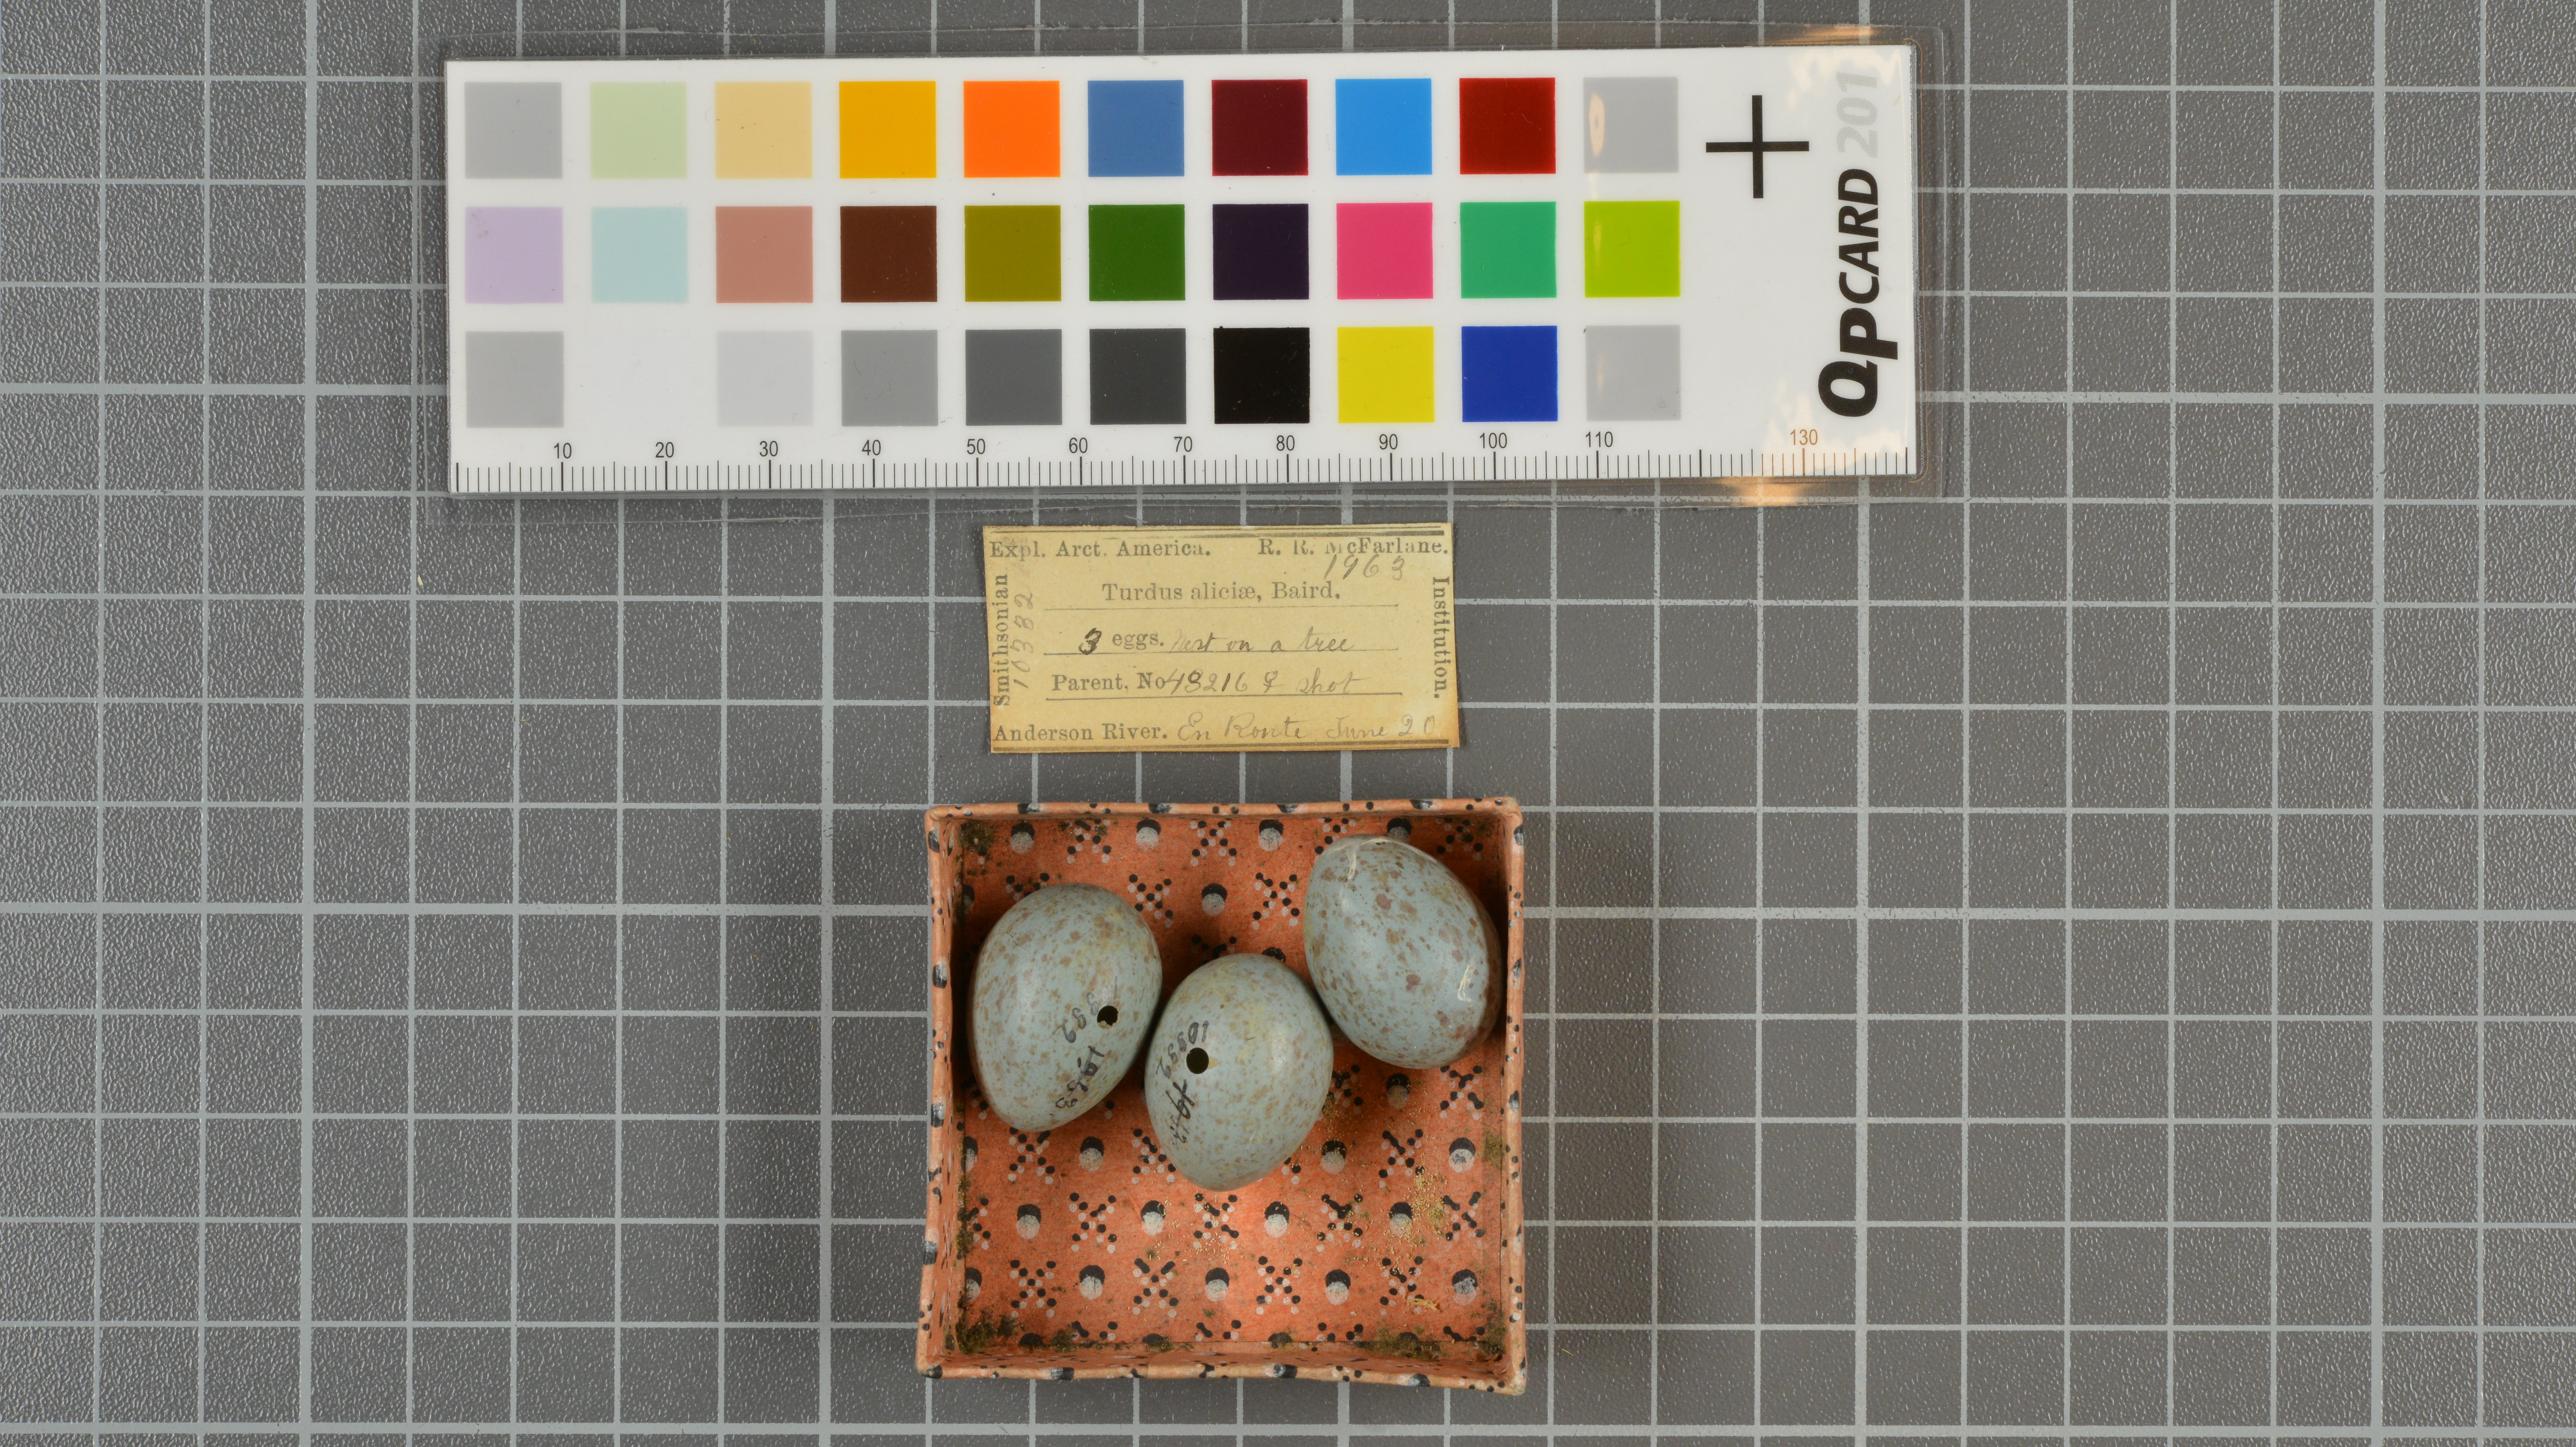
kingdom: Animalia
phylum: Chordata
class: Aves
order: Passeriformes
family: Turdidae
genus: Catharus
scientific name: Catharus minimus
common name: Grey-cheeked thrush
